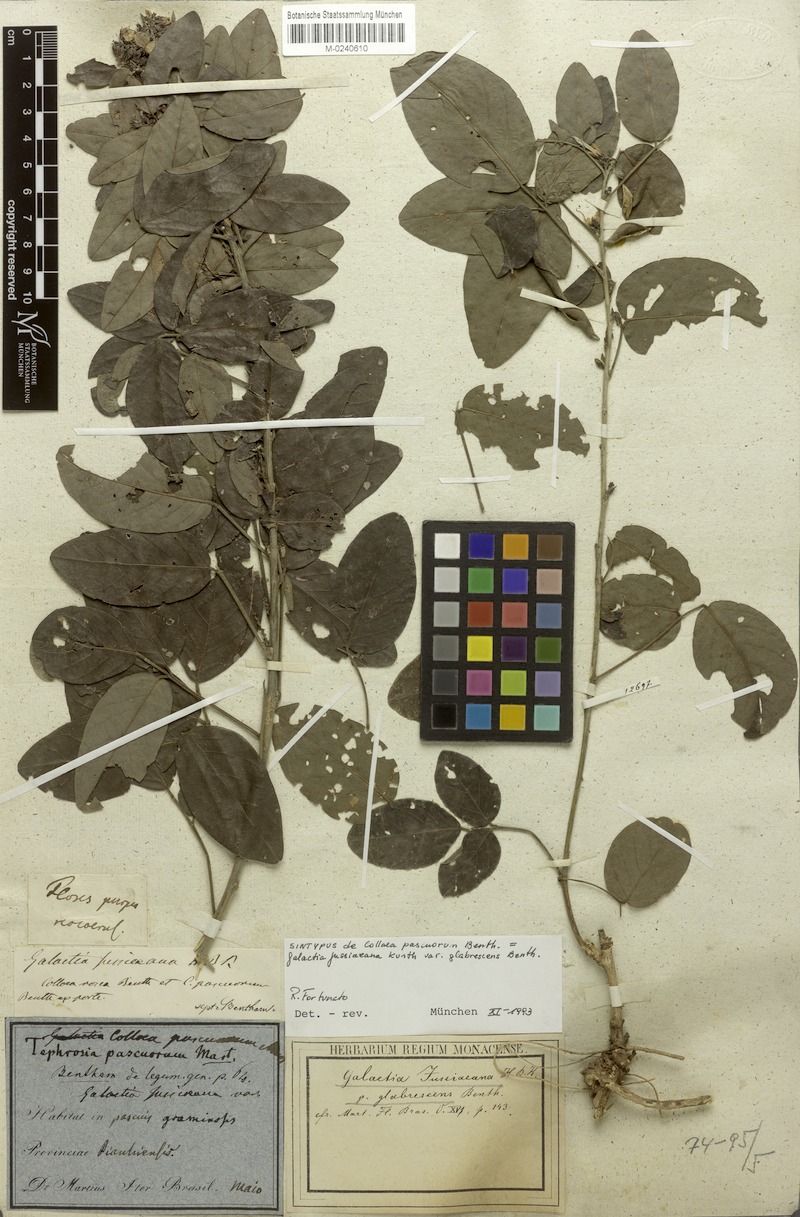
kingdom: Plantae
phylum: Tracheophyta
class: Magnoliopsida
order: Fabales
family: Fabaceae
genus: Galactia
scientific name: Galactia jussiaeana
